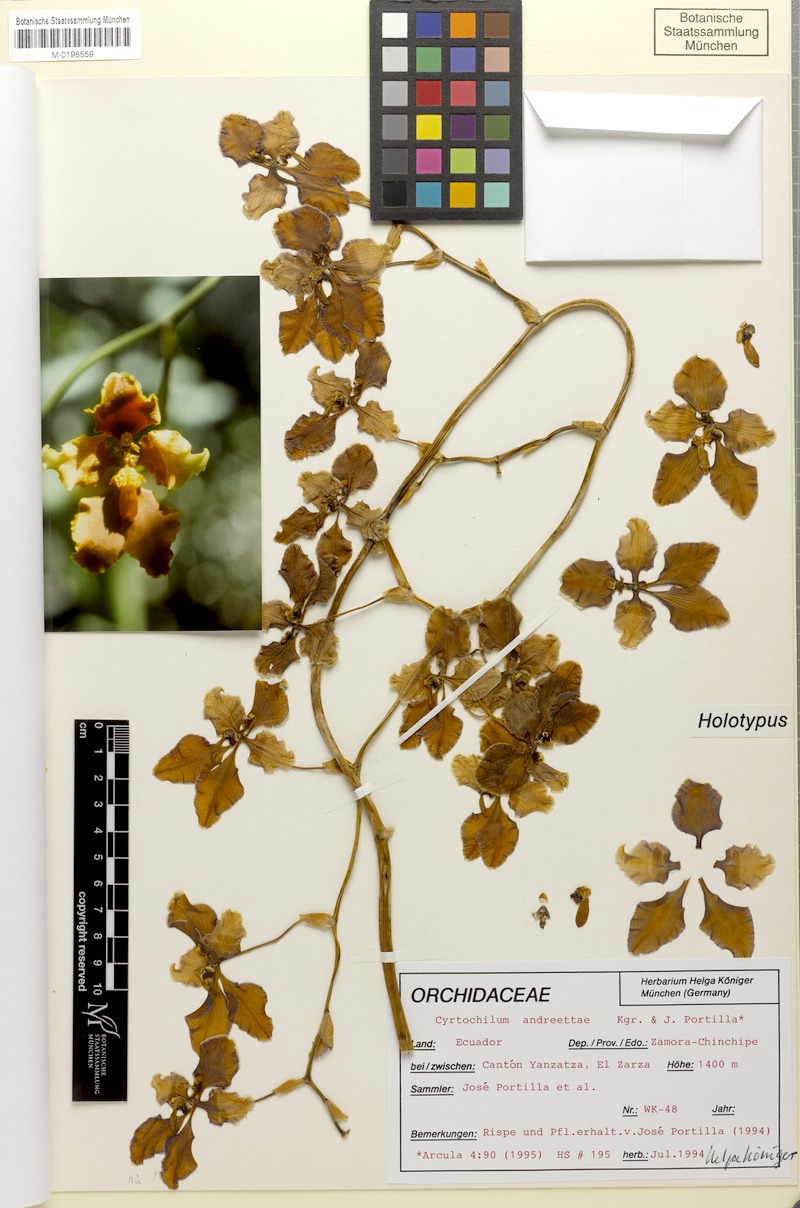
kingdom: Plantae
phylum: Tracheophyta
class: Liliopsida
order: Asparagales
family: Orchidaceae
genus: Cyrtochilum
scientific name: Cyrtochilum andreettae
